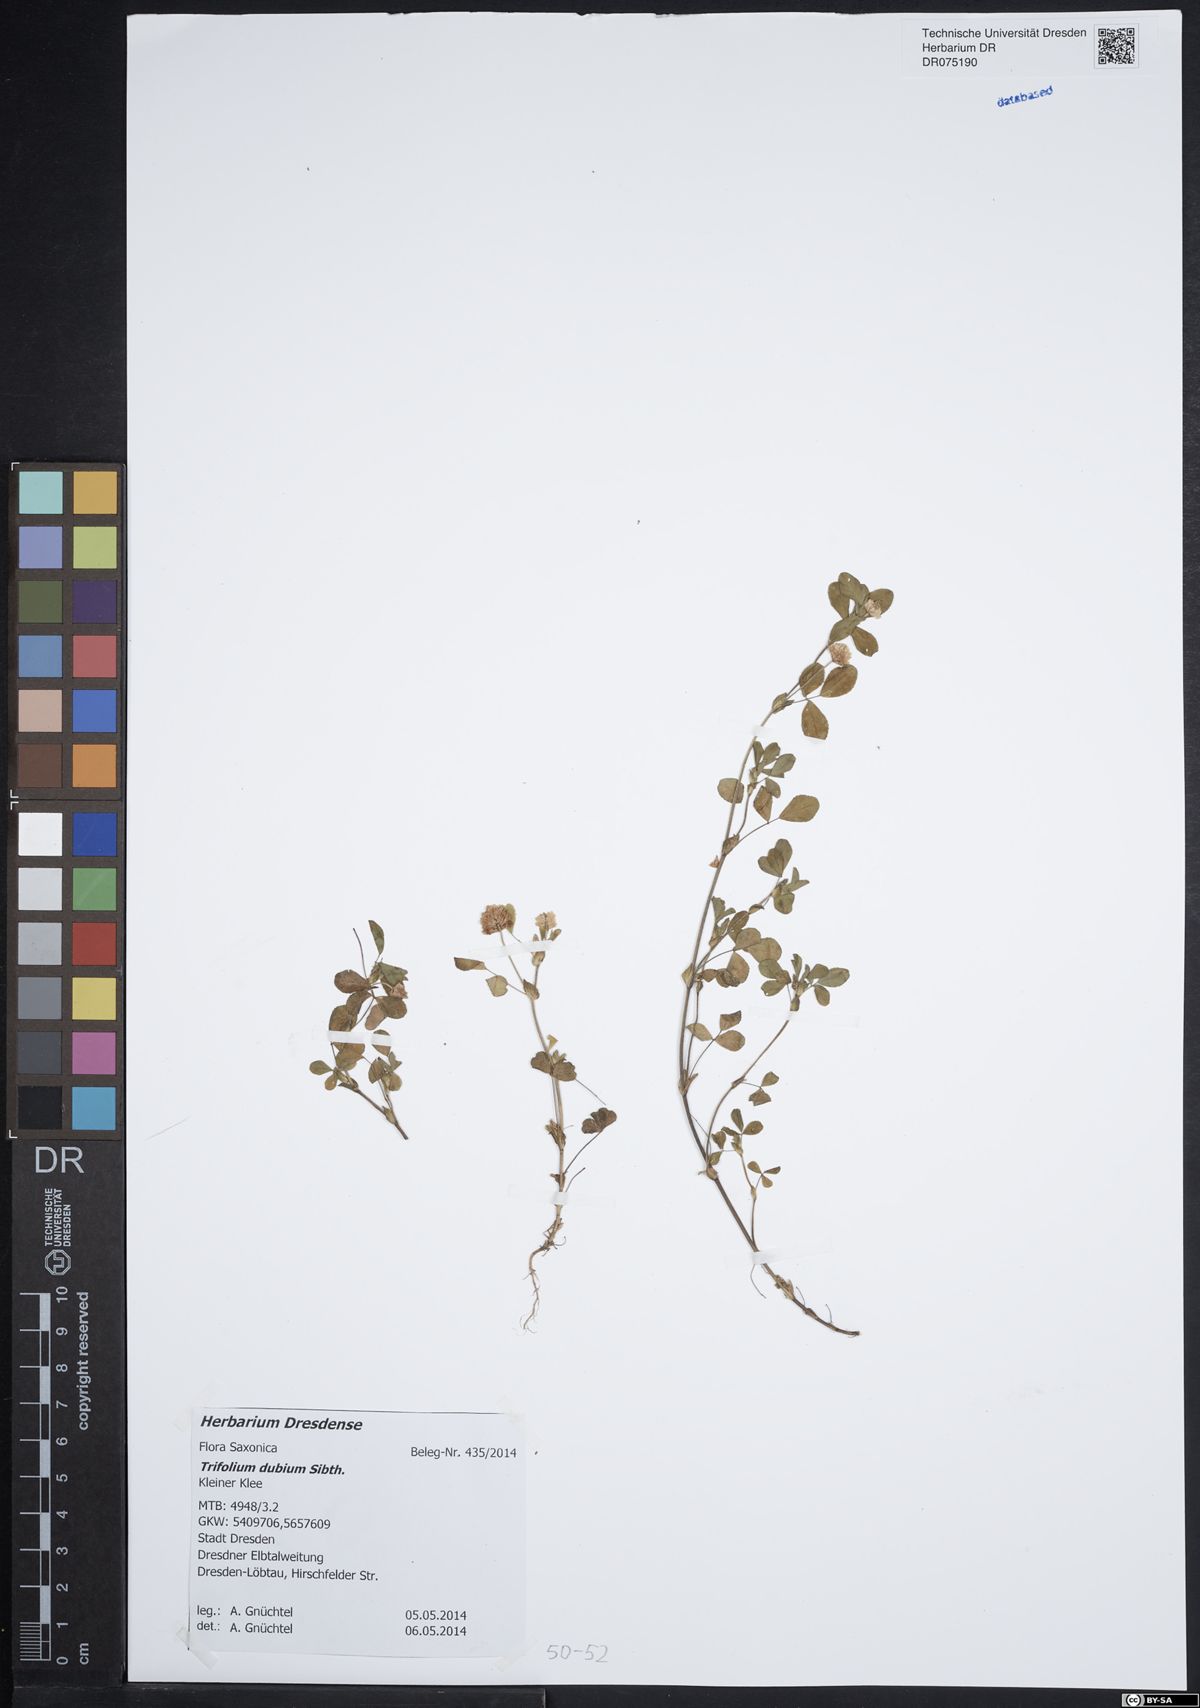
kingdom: Plantae
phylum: Tracheophyta
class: Magnoliopsida
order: Fabales
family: Fabaceae
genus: Trifolium
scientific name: Trifolium dubium
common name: Suckling clover
